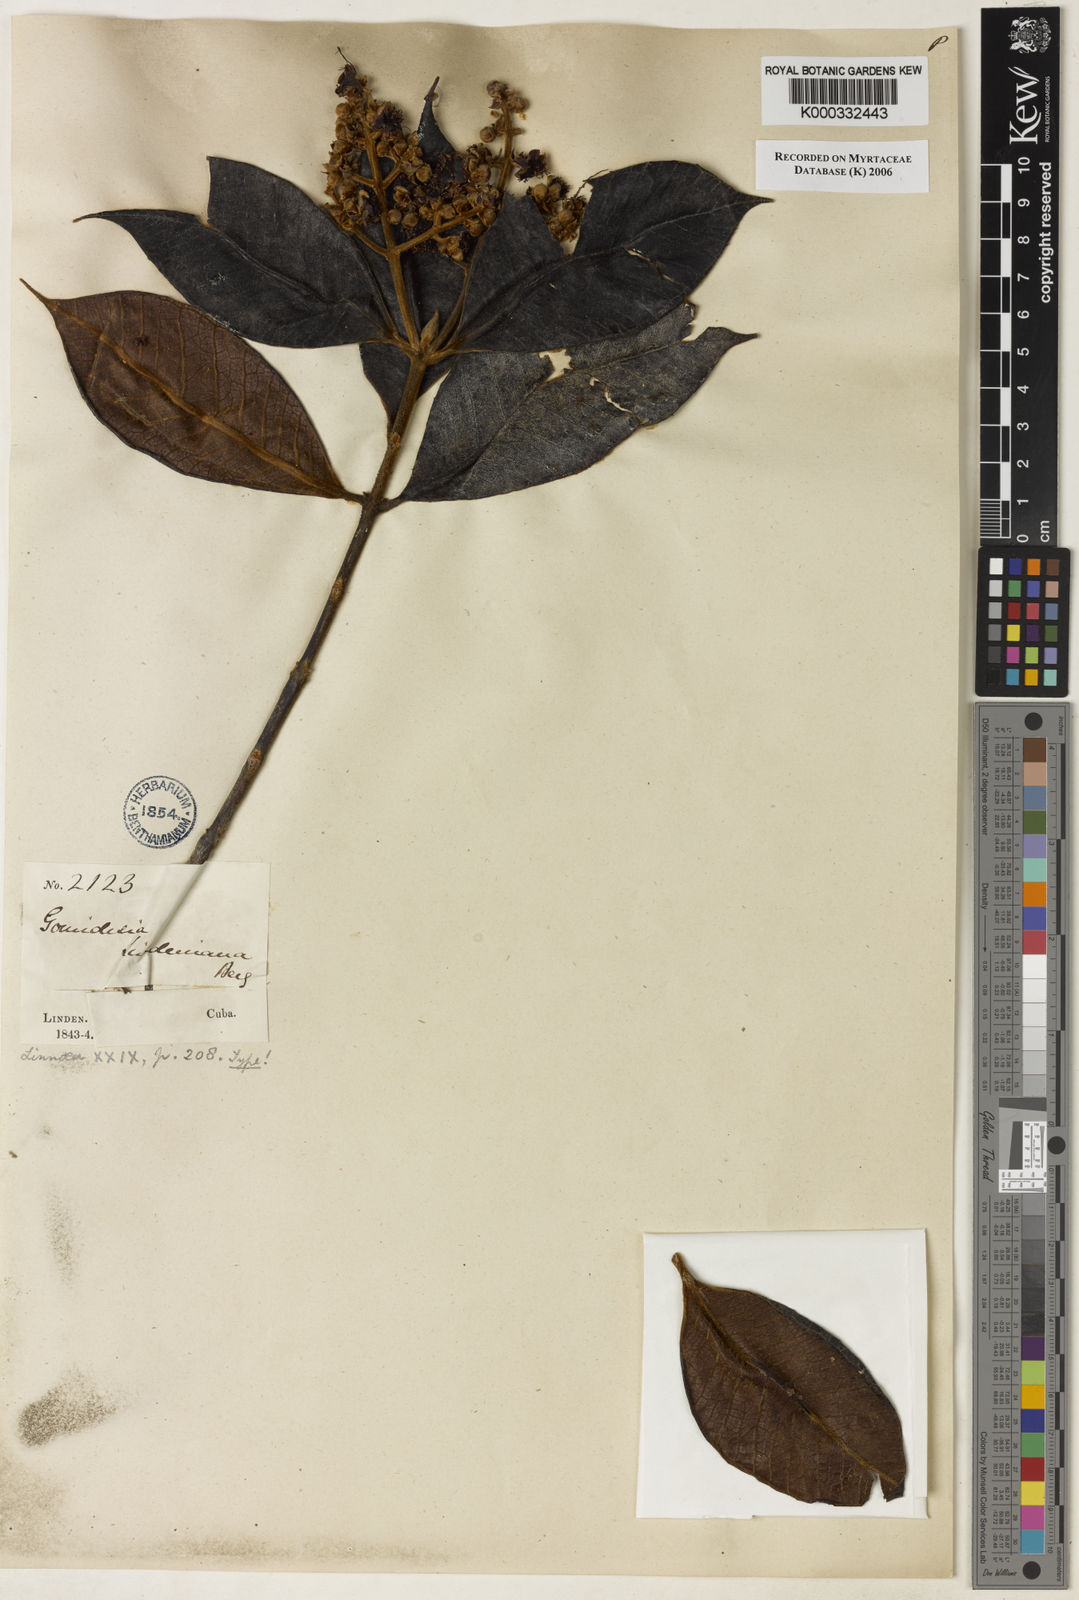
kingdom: Plantae
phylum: Tracheophyta
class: Magnoliopsida
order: Myrtales
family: Myrtaceae
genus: Myrcia
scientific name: Myrcia fenzliana
